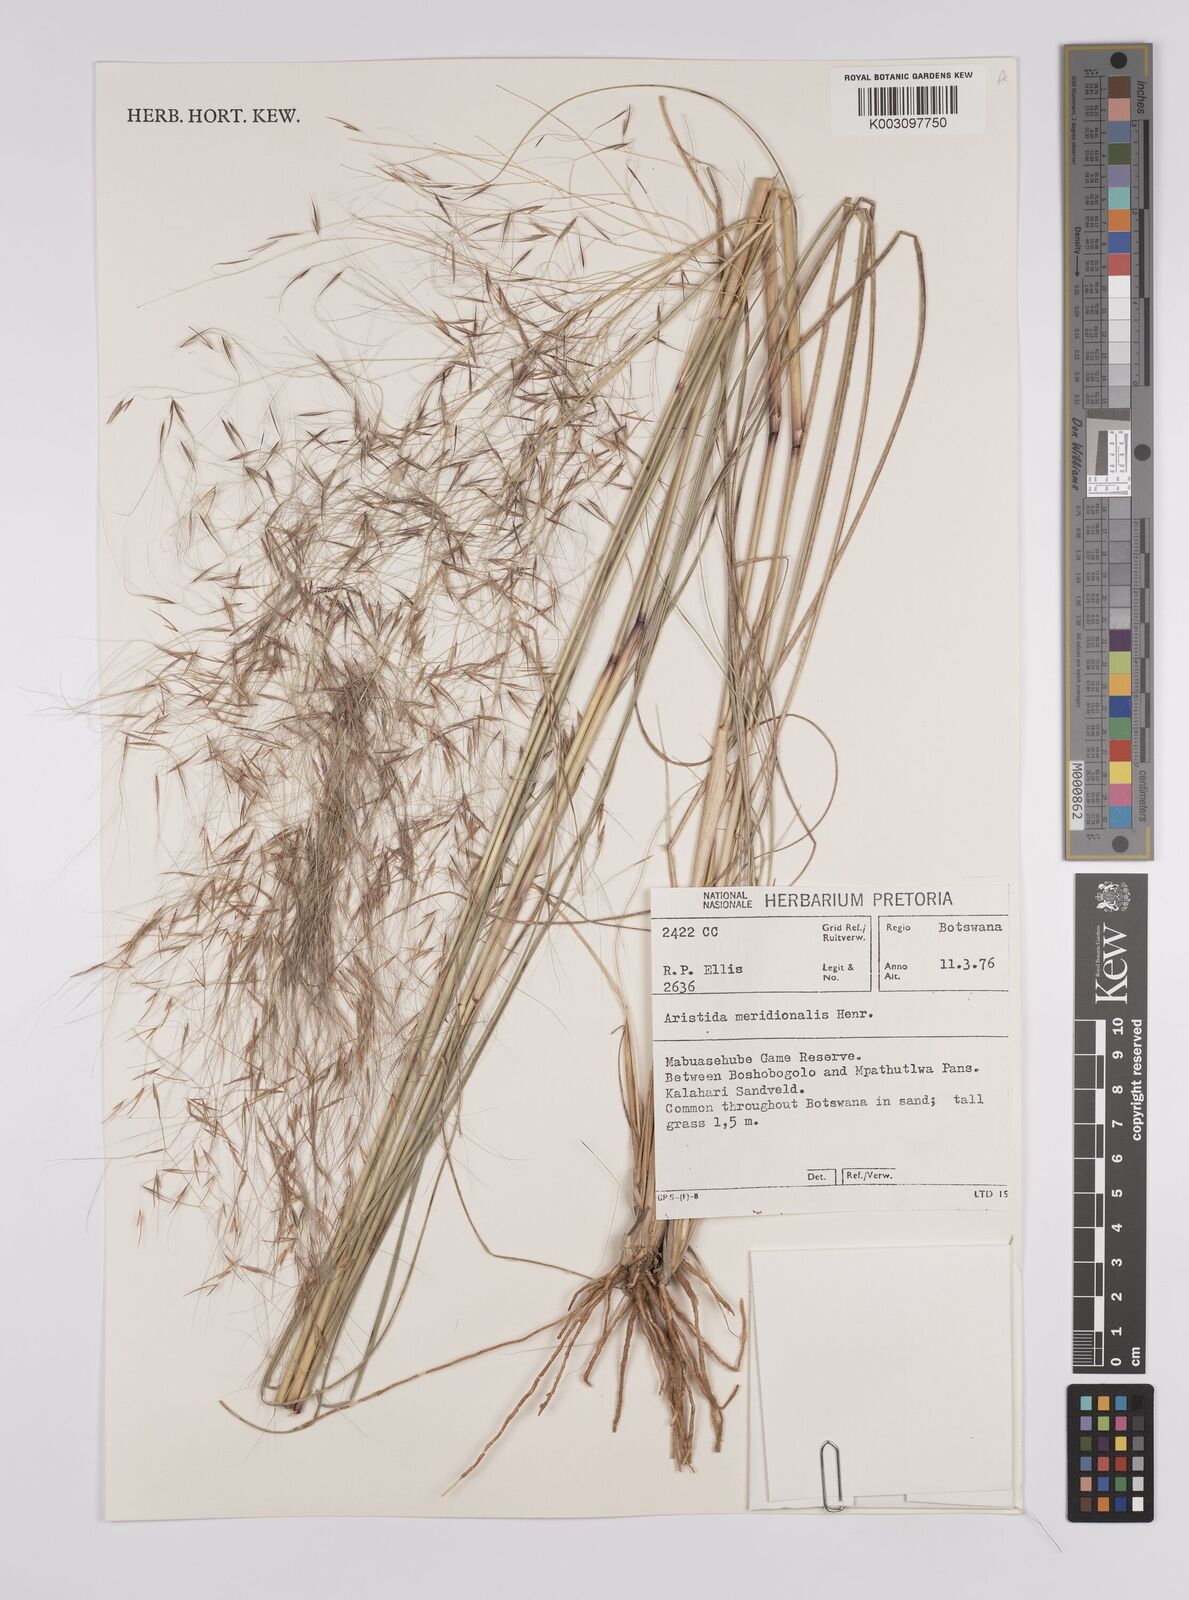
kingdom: Plantae
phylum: Tracheophyta
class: Liliopsida
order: Poales
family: Poaceae
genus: Aristida
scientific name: Aristida meridionalis
